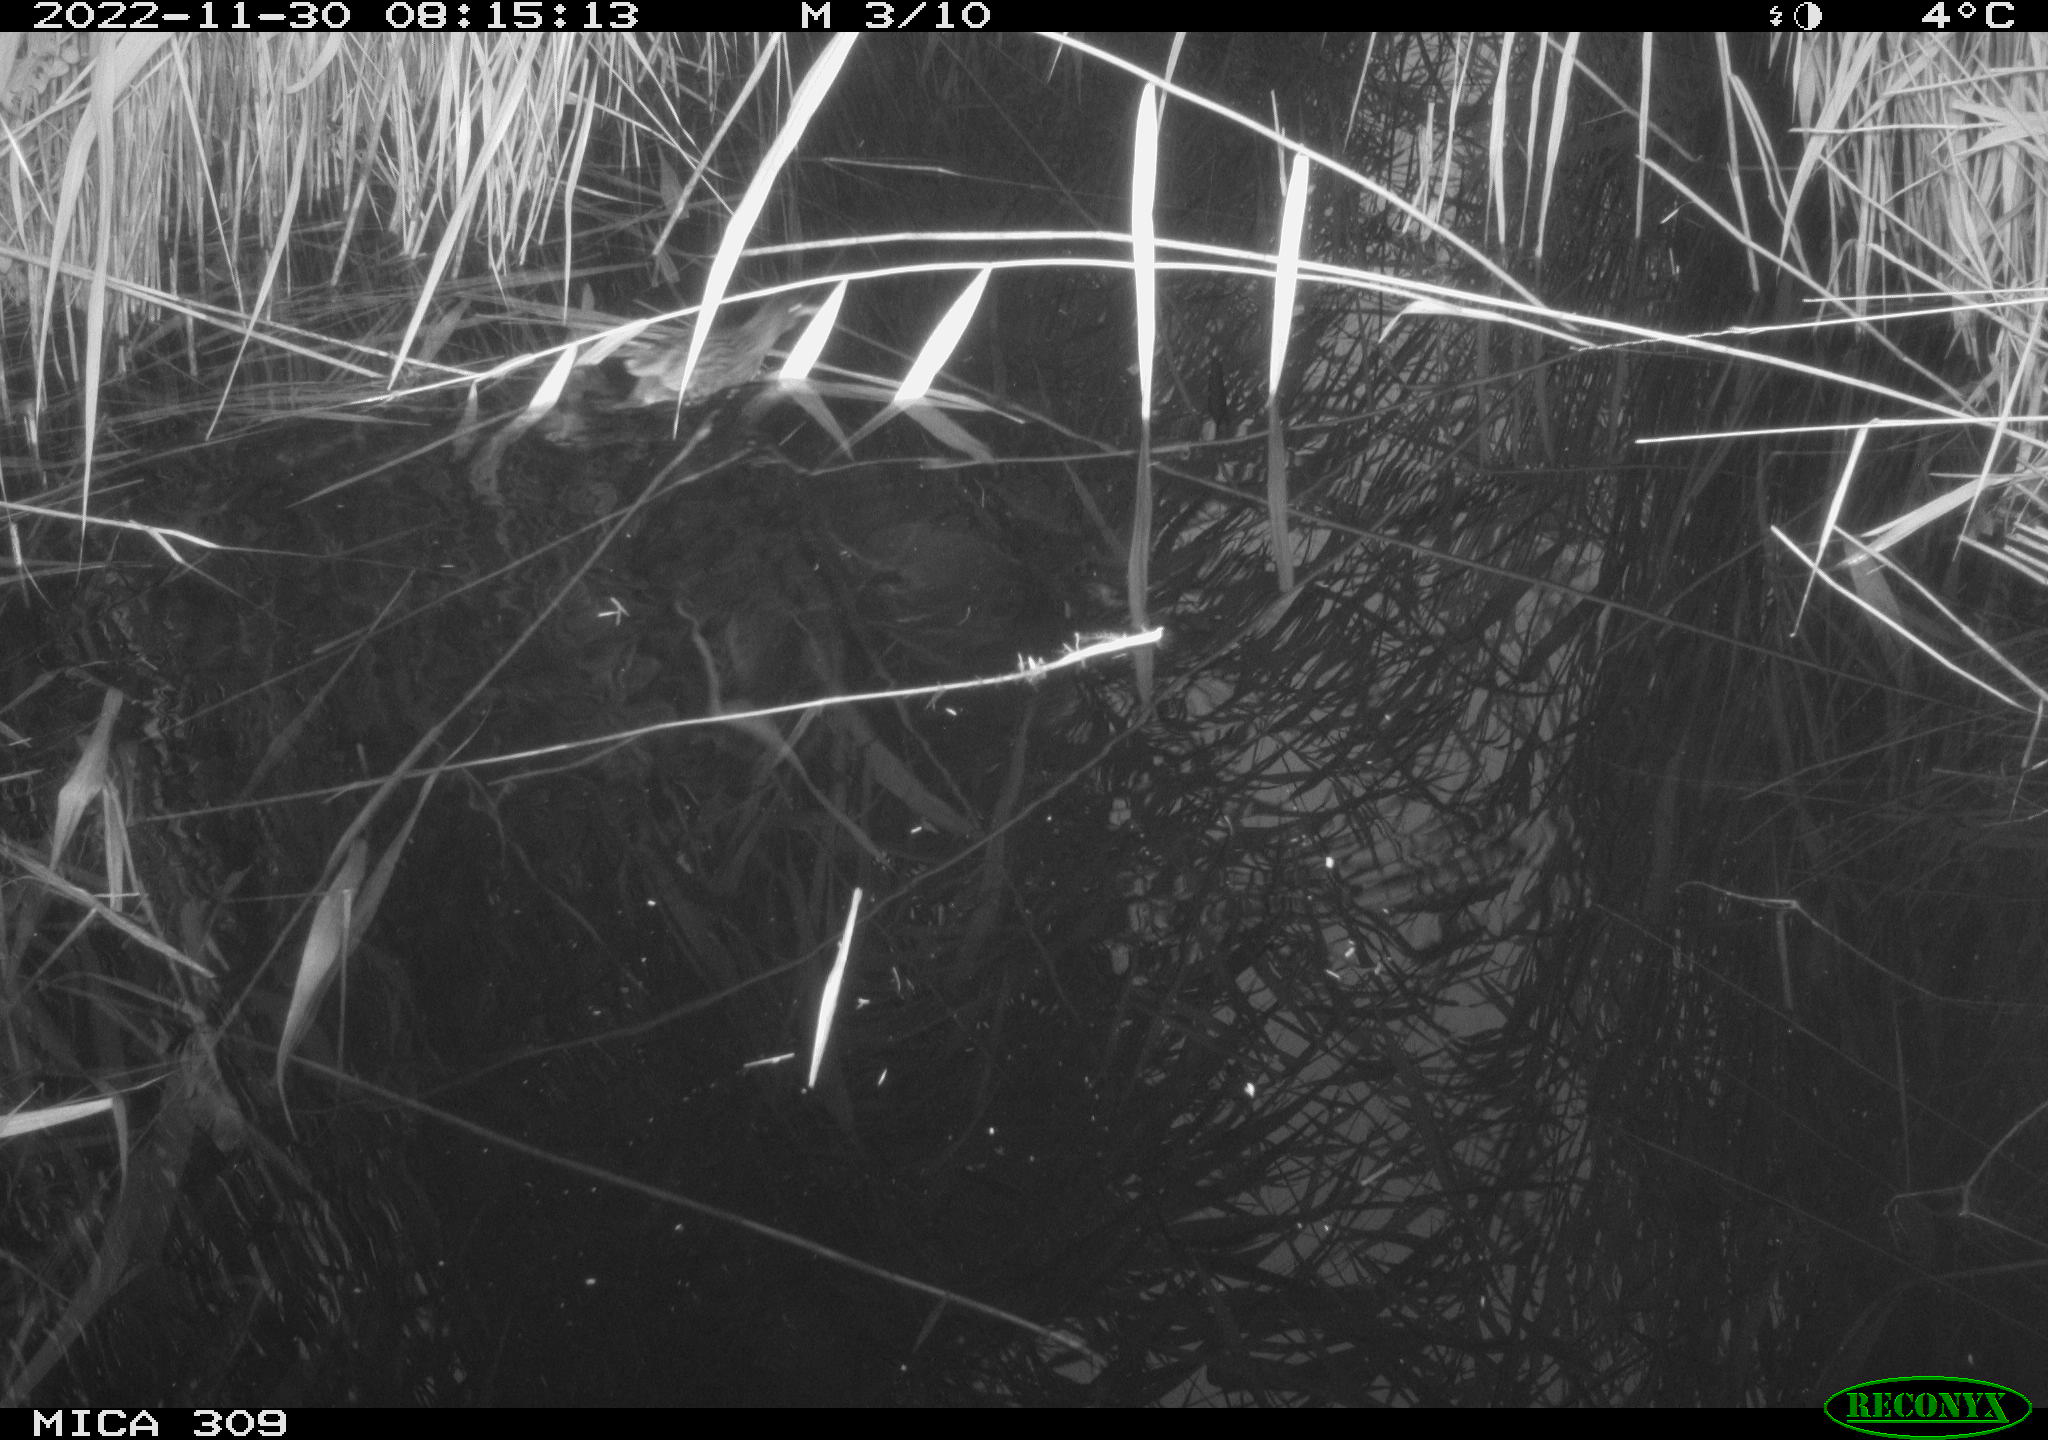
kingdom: Animalia
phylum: Chordata
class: Aves
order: Anseriformes
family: Anatidae
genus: Anas
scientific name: Anas
